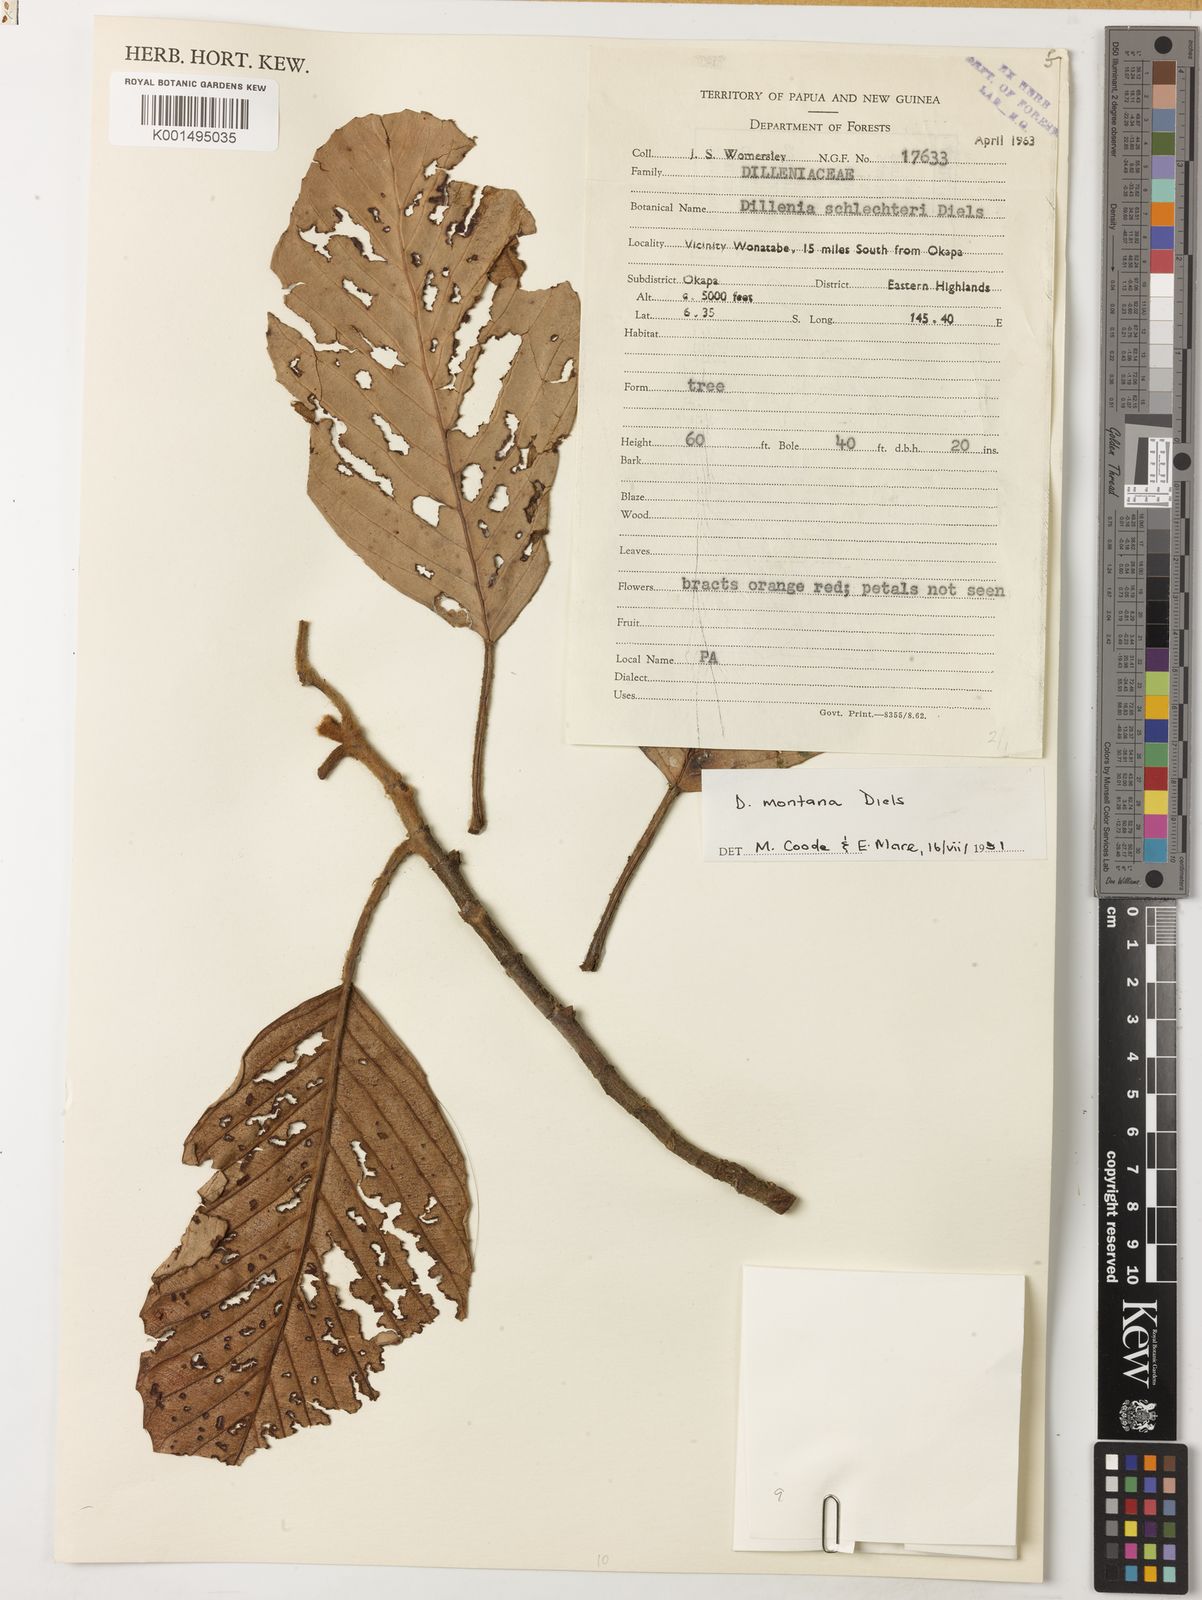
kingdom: Plantae
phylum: Tracheophyta
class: Magnoliopsida
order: Dilleniales
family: Dilleniaceae
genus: Dillenia
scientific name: Dillenia montana
